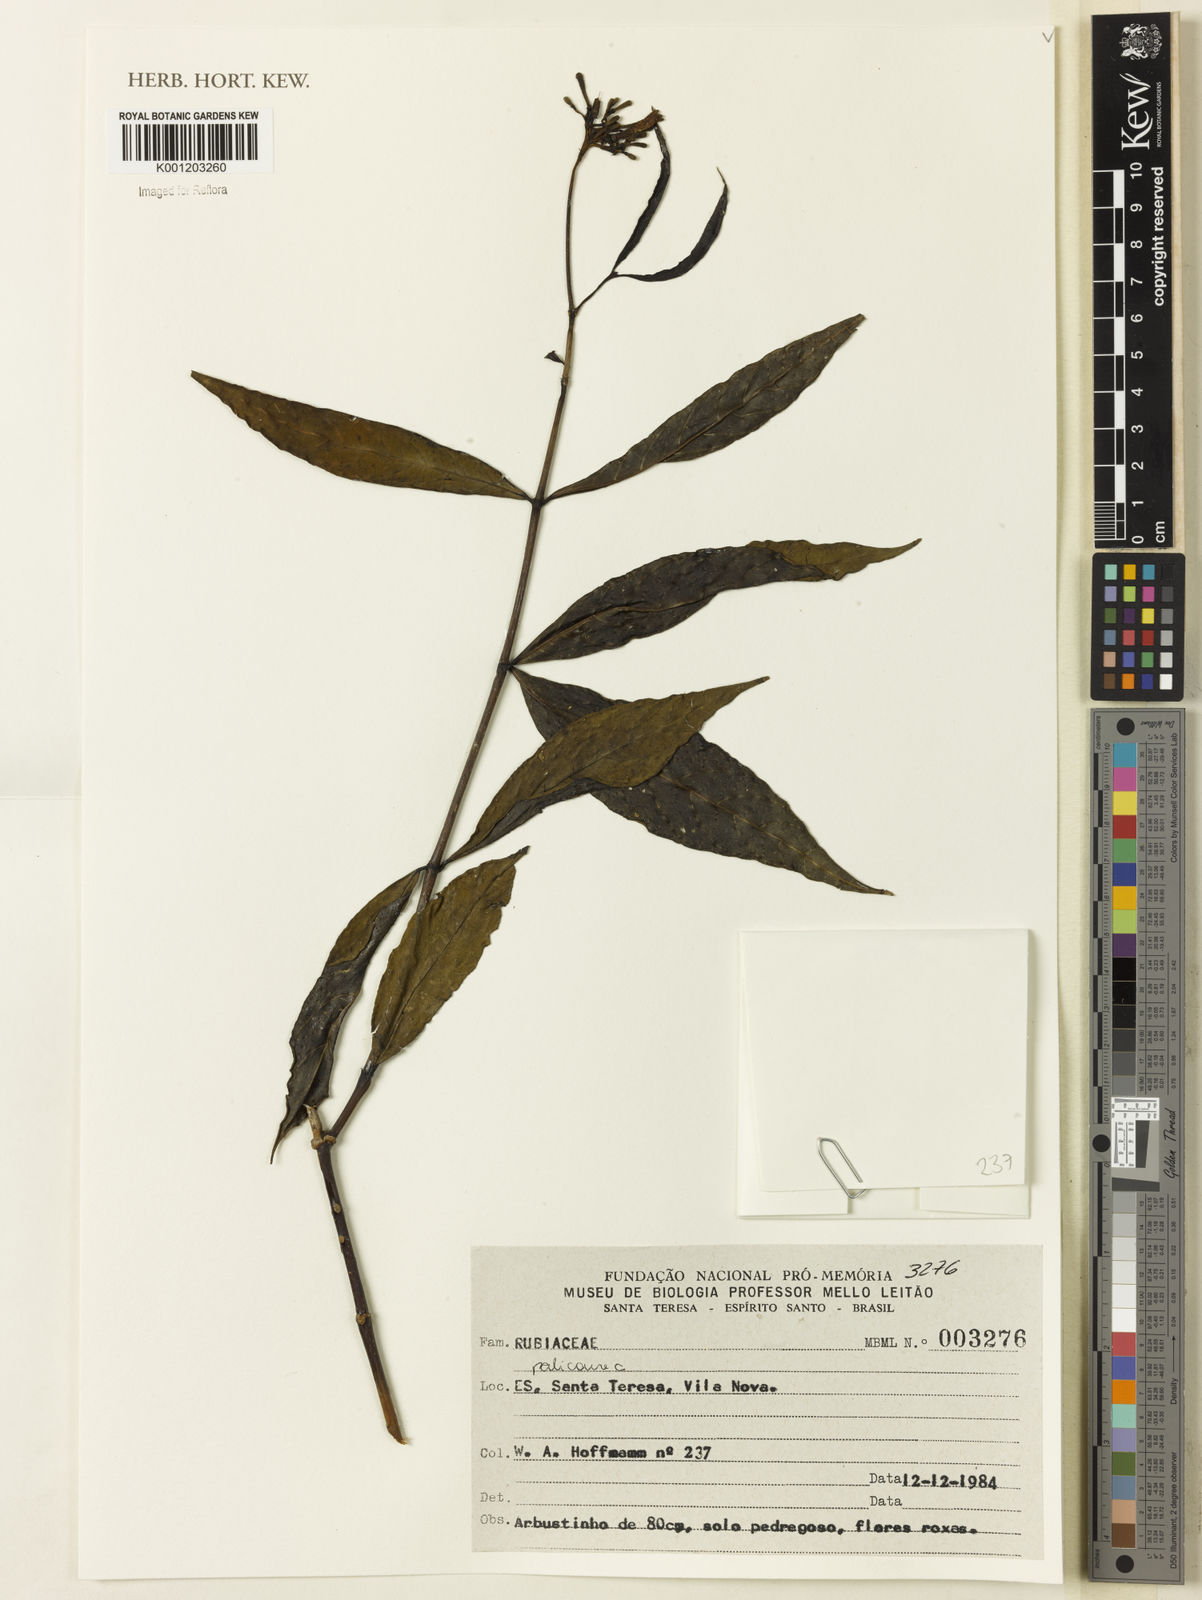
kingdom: Plantae
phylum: Tracheophyta
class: Magnoliopsida
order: Gentianales
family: Rubiaceae
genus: Palicourea
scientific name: Palicourea
